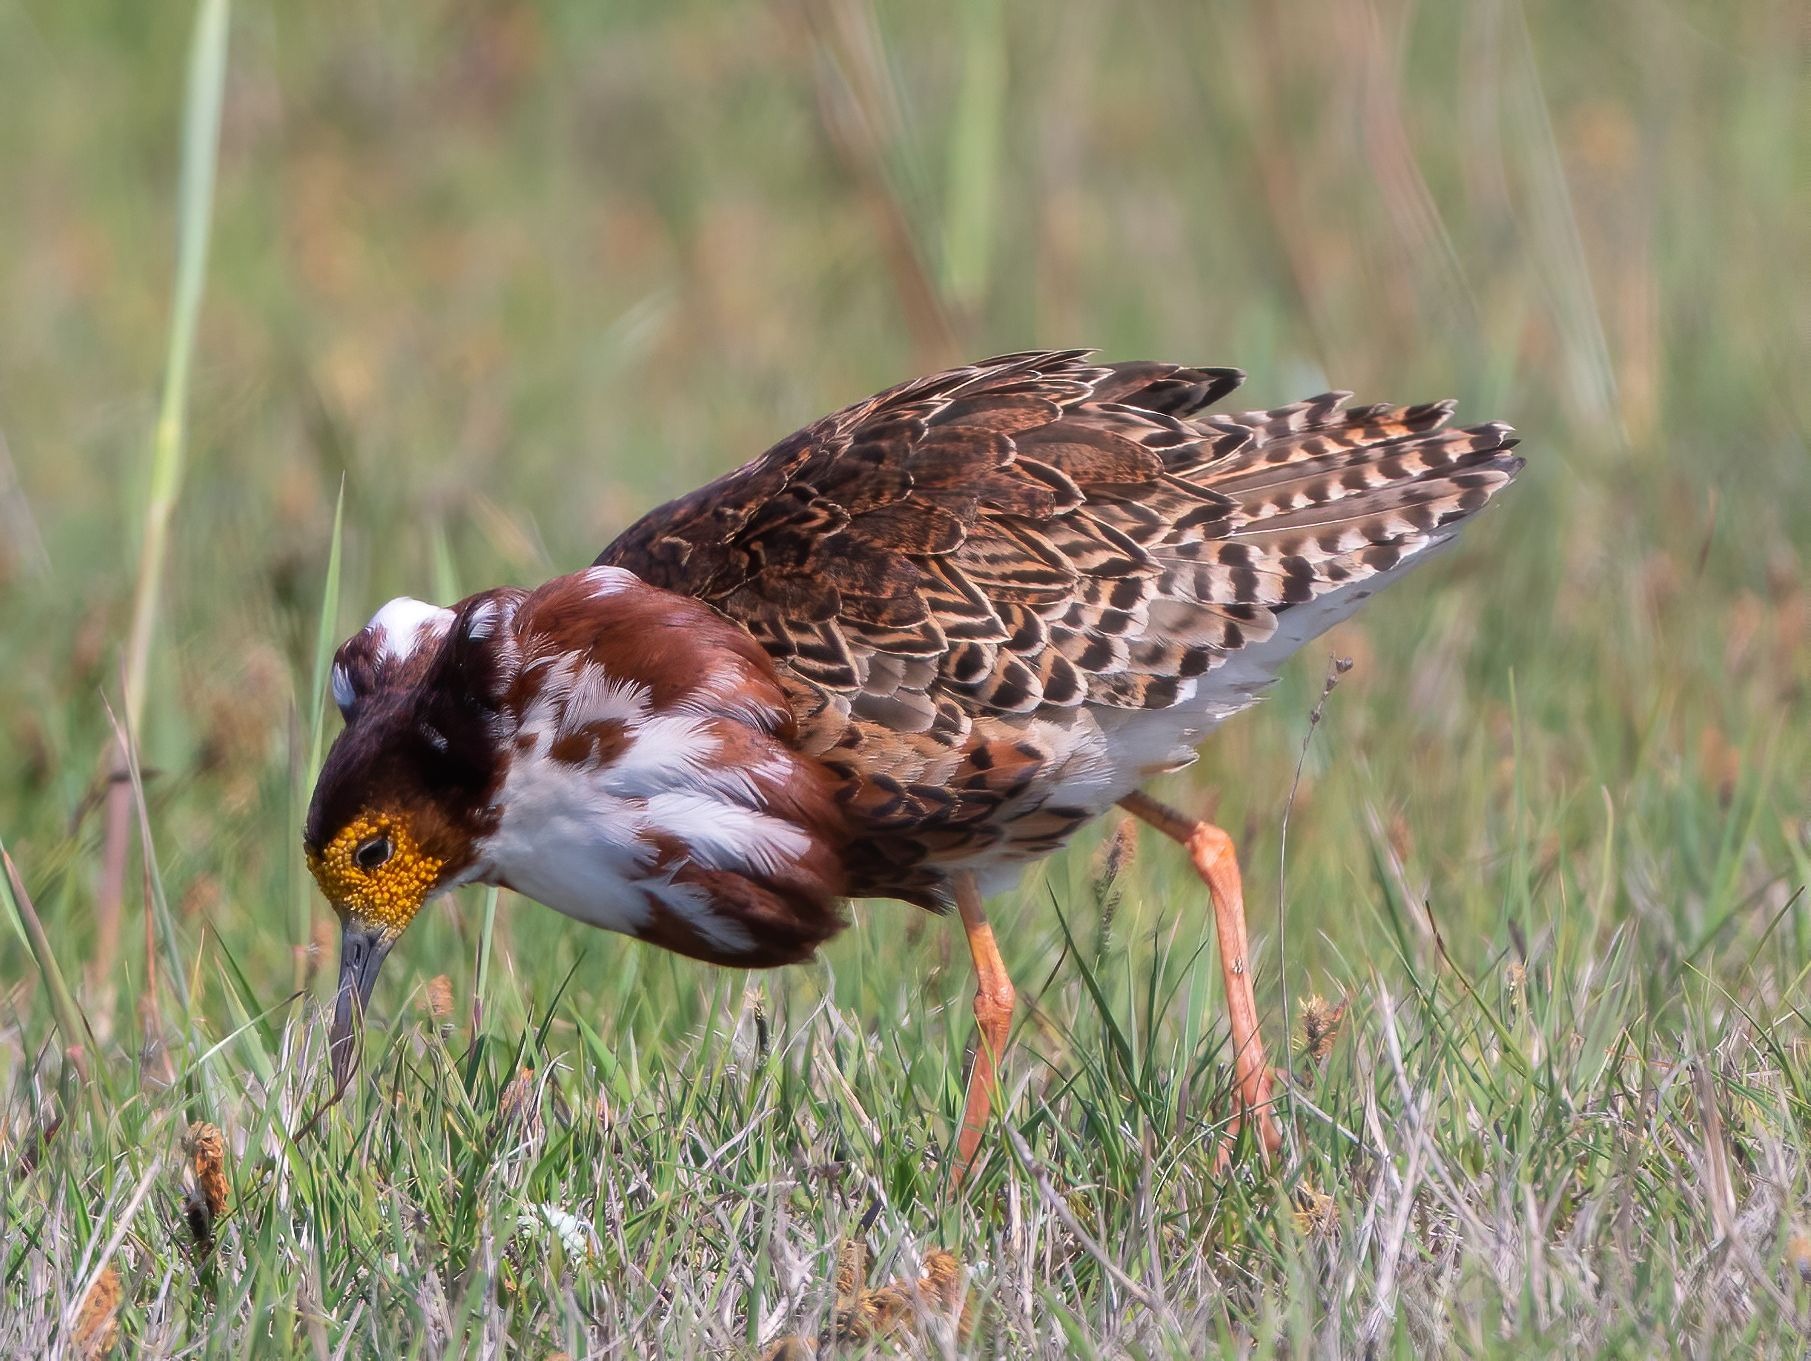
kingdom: Animalia
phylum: Chordata
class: Aves
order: Charadriiformes
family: Scolopacidae
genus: Calidris
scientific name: Calidris pugnax
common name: Brushane
